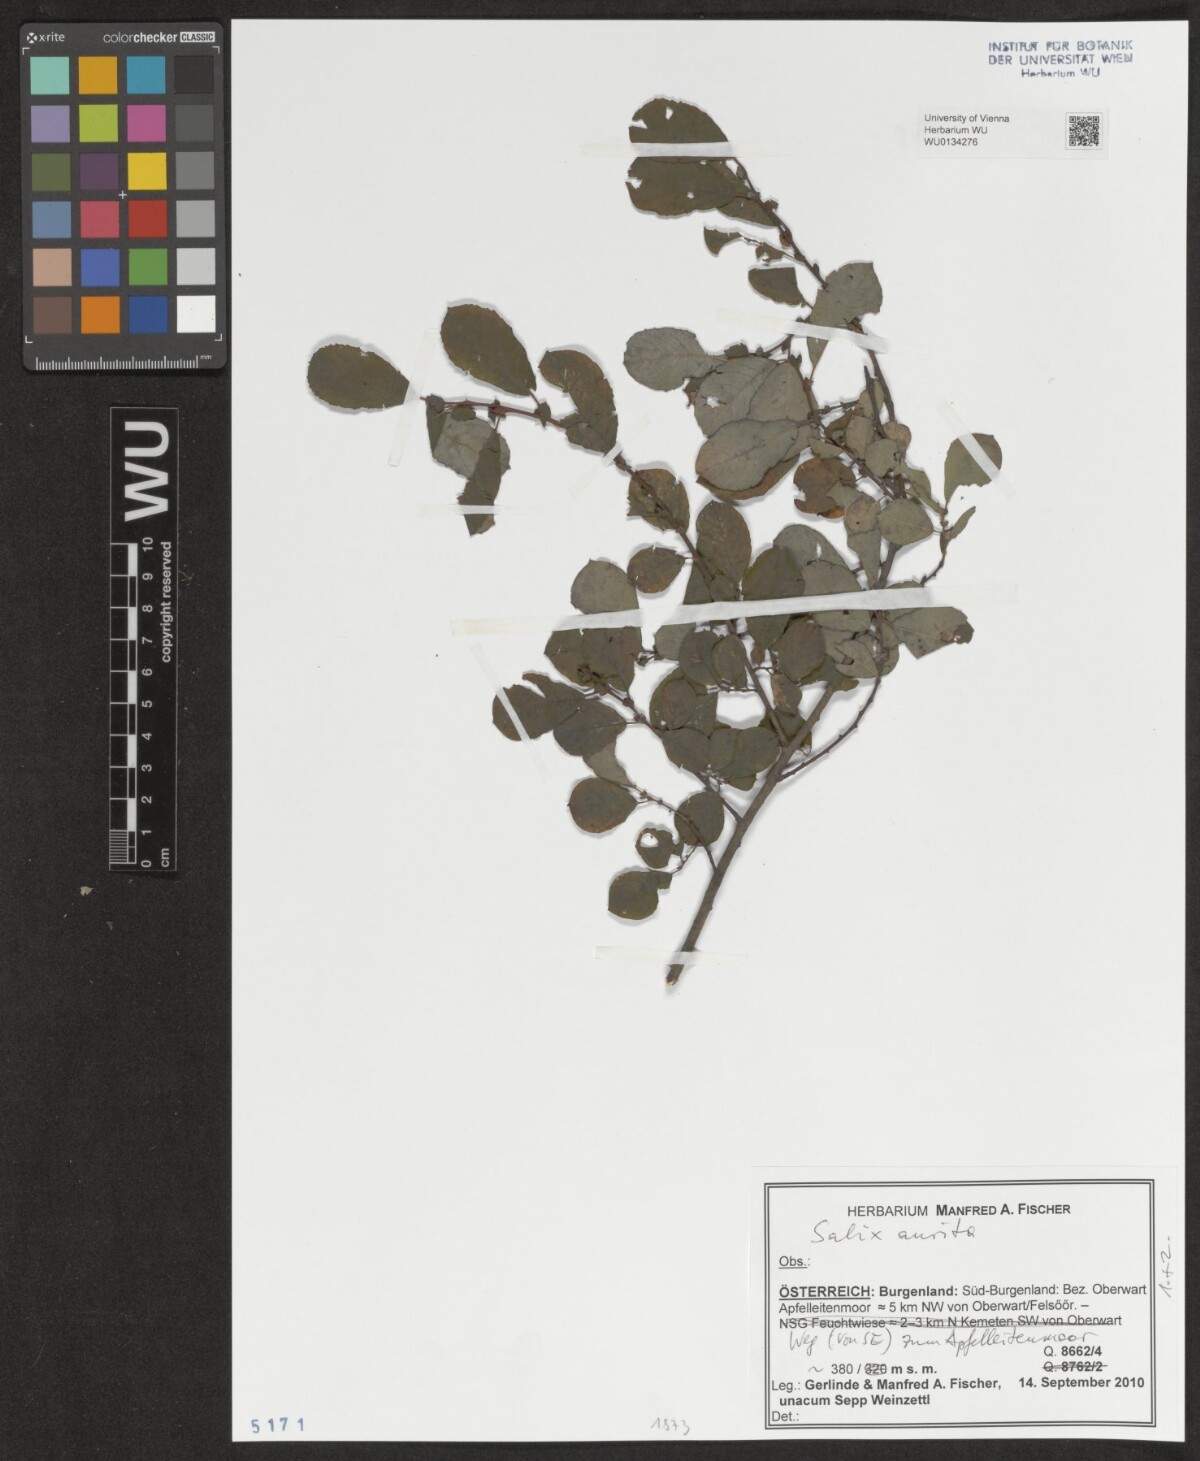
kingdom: Plantae
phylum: Tracheophyta
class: Magnoliopsida
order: Malpighiales
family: Salicaceae
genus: Salix
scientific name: Salix aurita
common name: Eared willow
